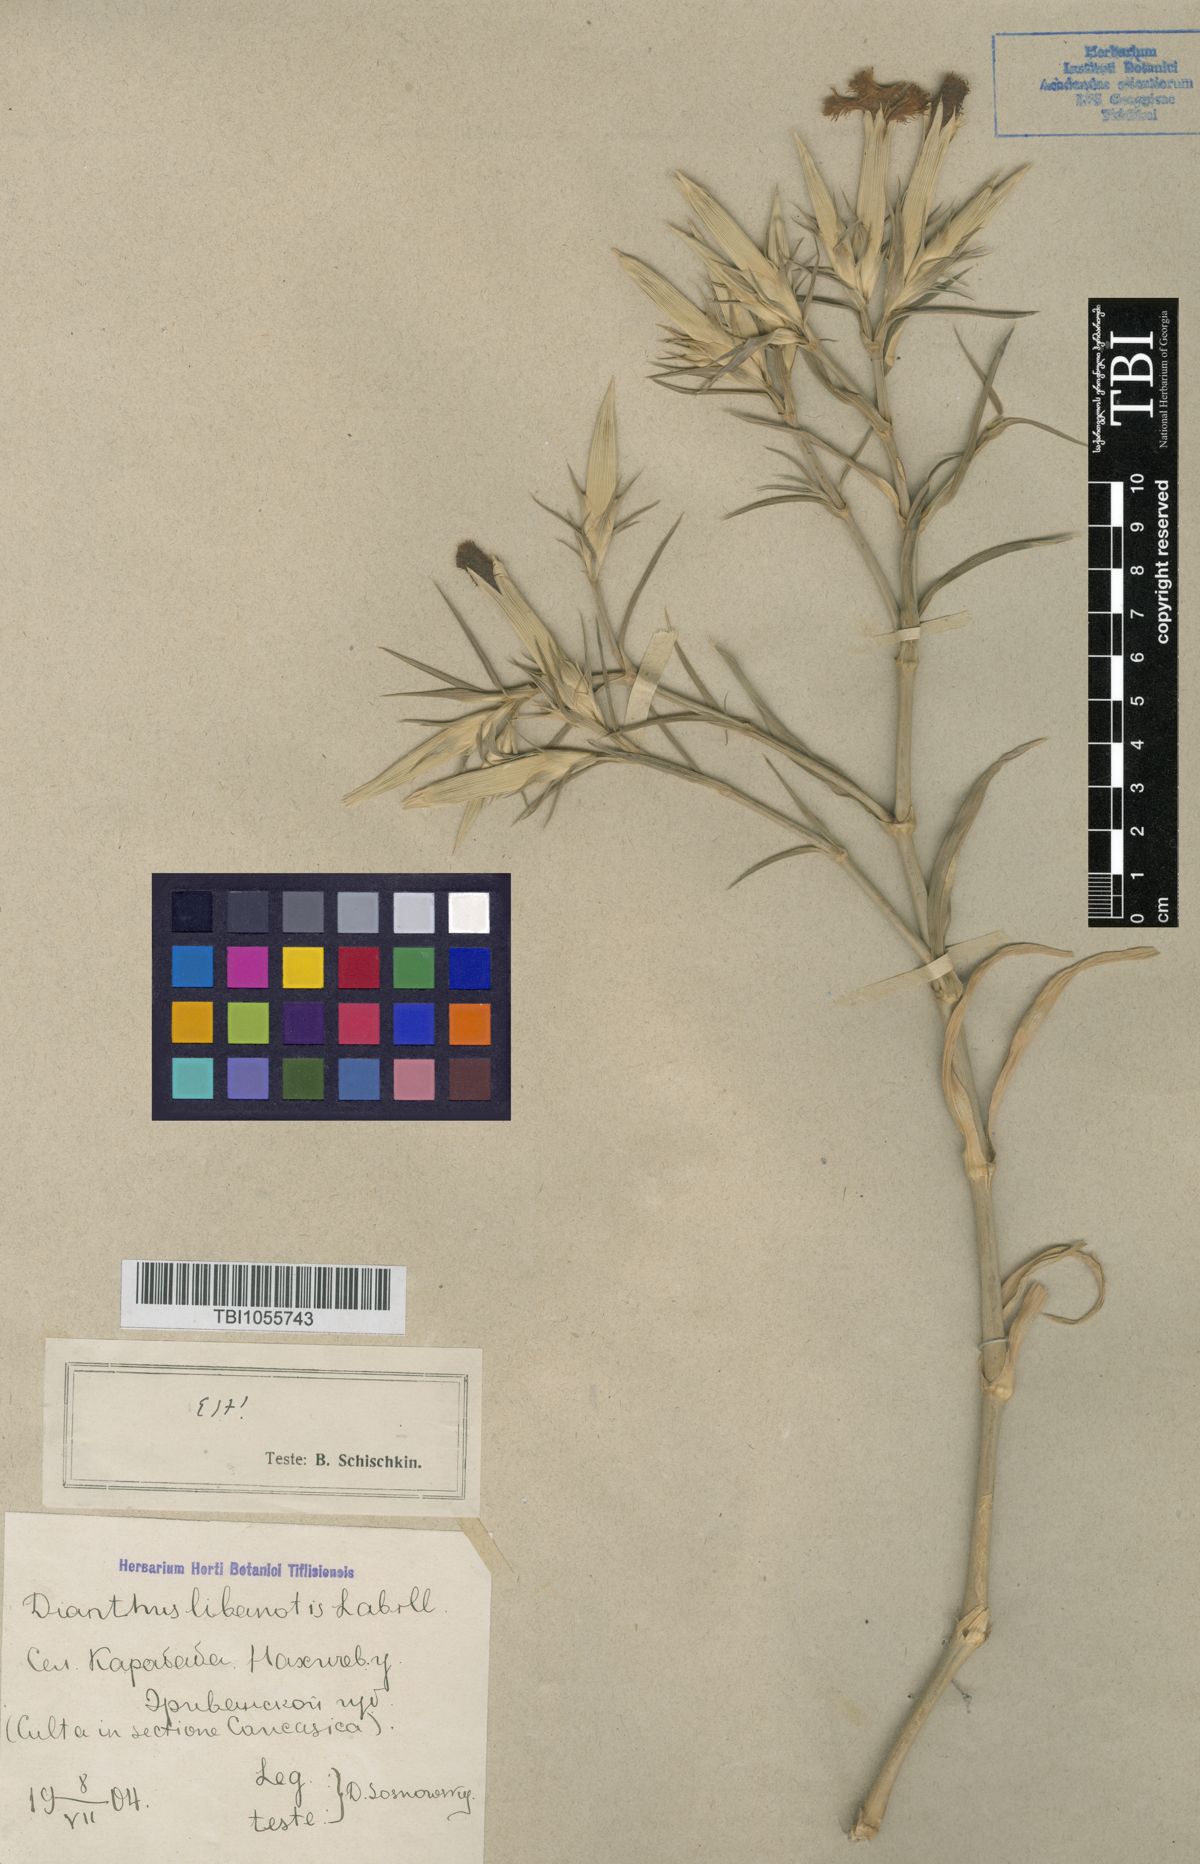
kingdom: Plantae
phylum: Tracheophyta
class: Magnoliopsida
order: Caryophyllales
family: Caryophyllaceae
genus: Dianthus
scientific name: Dianthus libanotis
